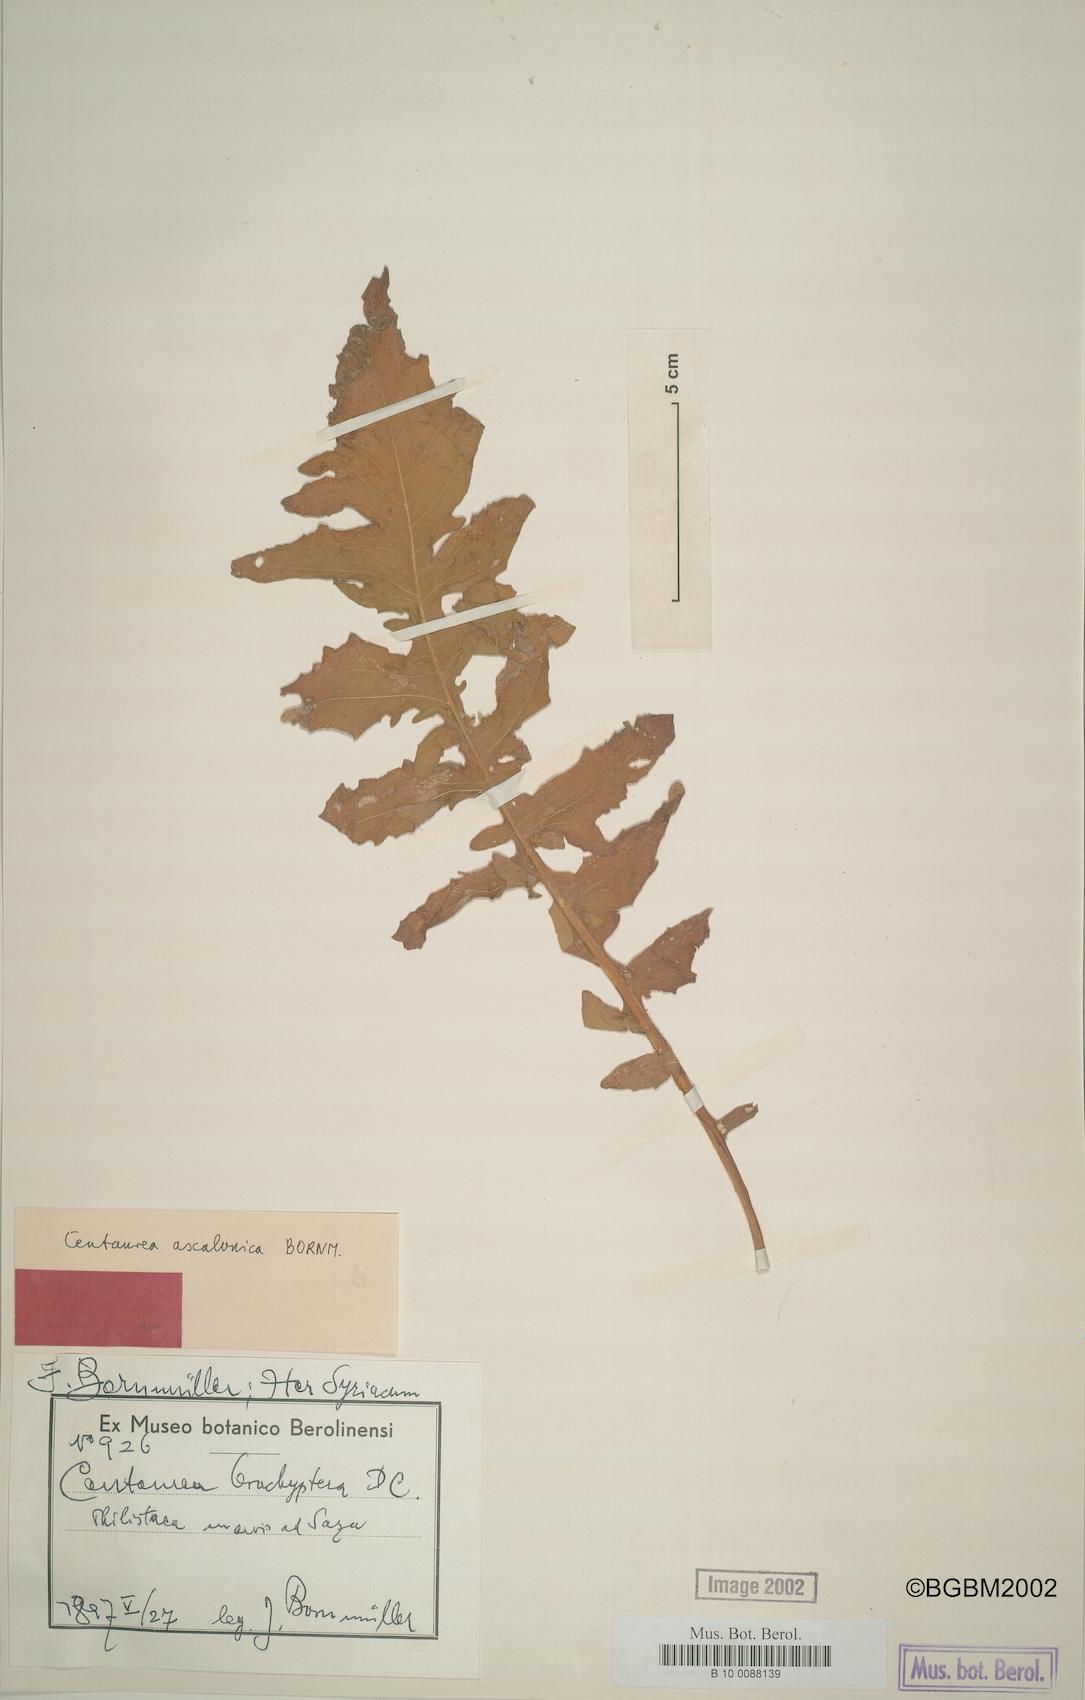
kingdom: Plantae
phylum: Tracheophyta
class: Magnoliopsida
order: Asterales
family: Asteraceae
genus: Centaurea
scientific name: Centaurea ascalonica
